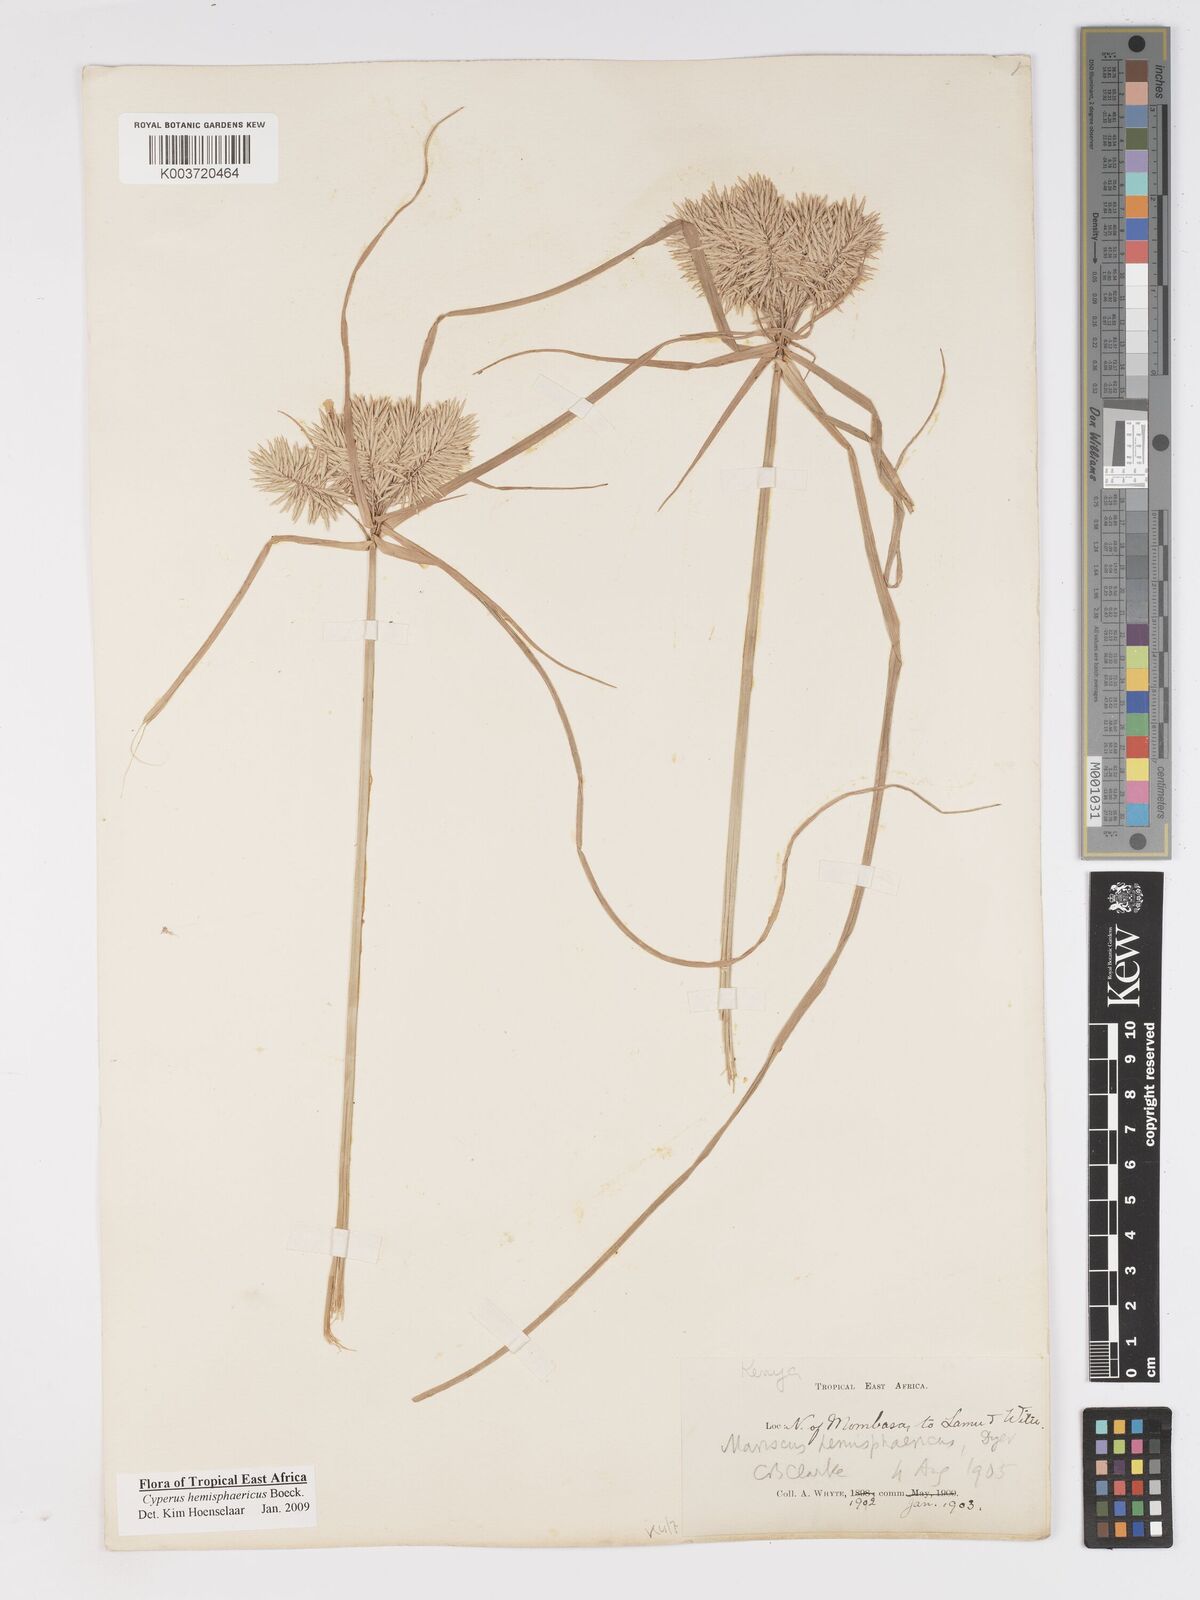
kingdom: Plantae
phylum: Tracheophyta
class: Liliopsida
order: Poales
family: Cyperaceae
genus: Cyperus
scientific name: Cyperus hemisphaericus
